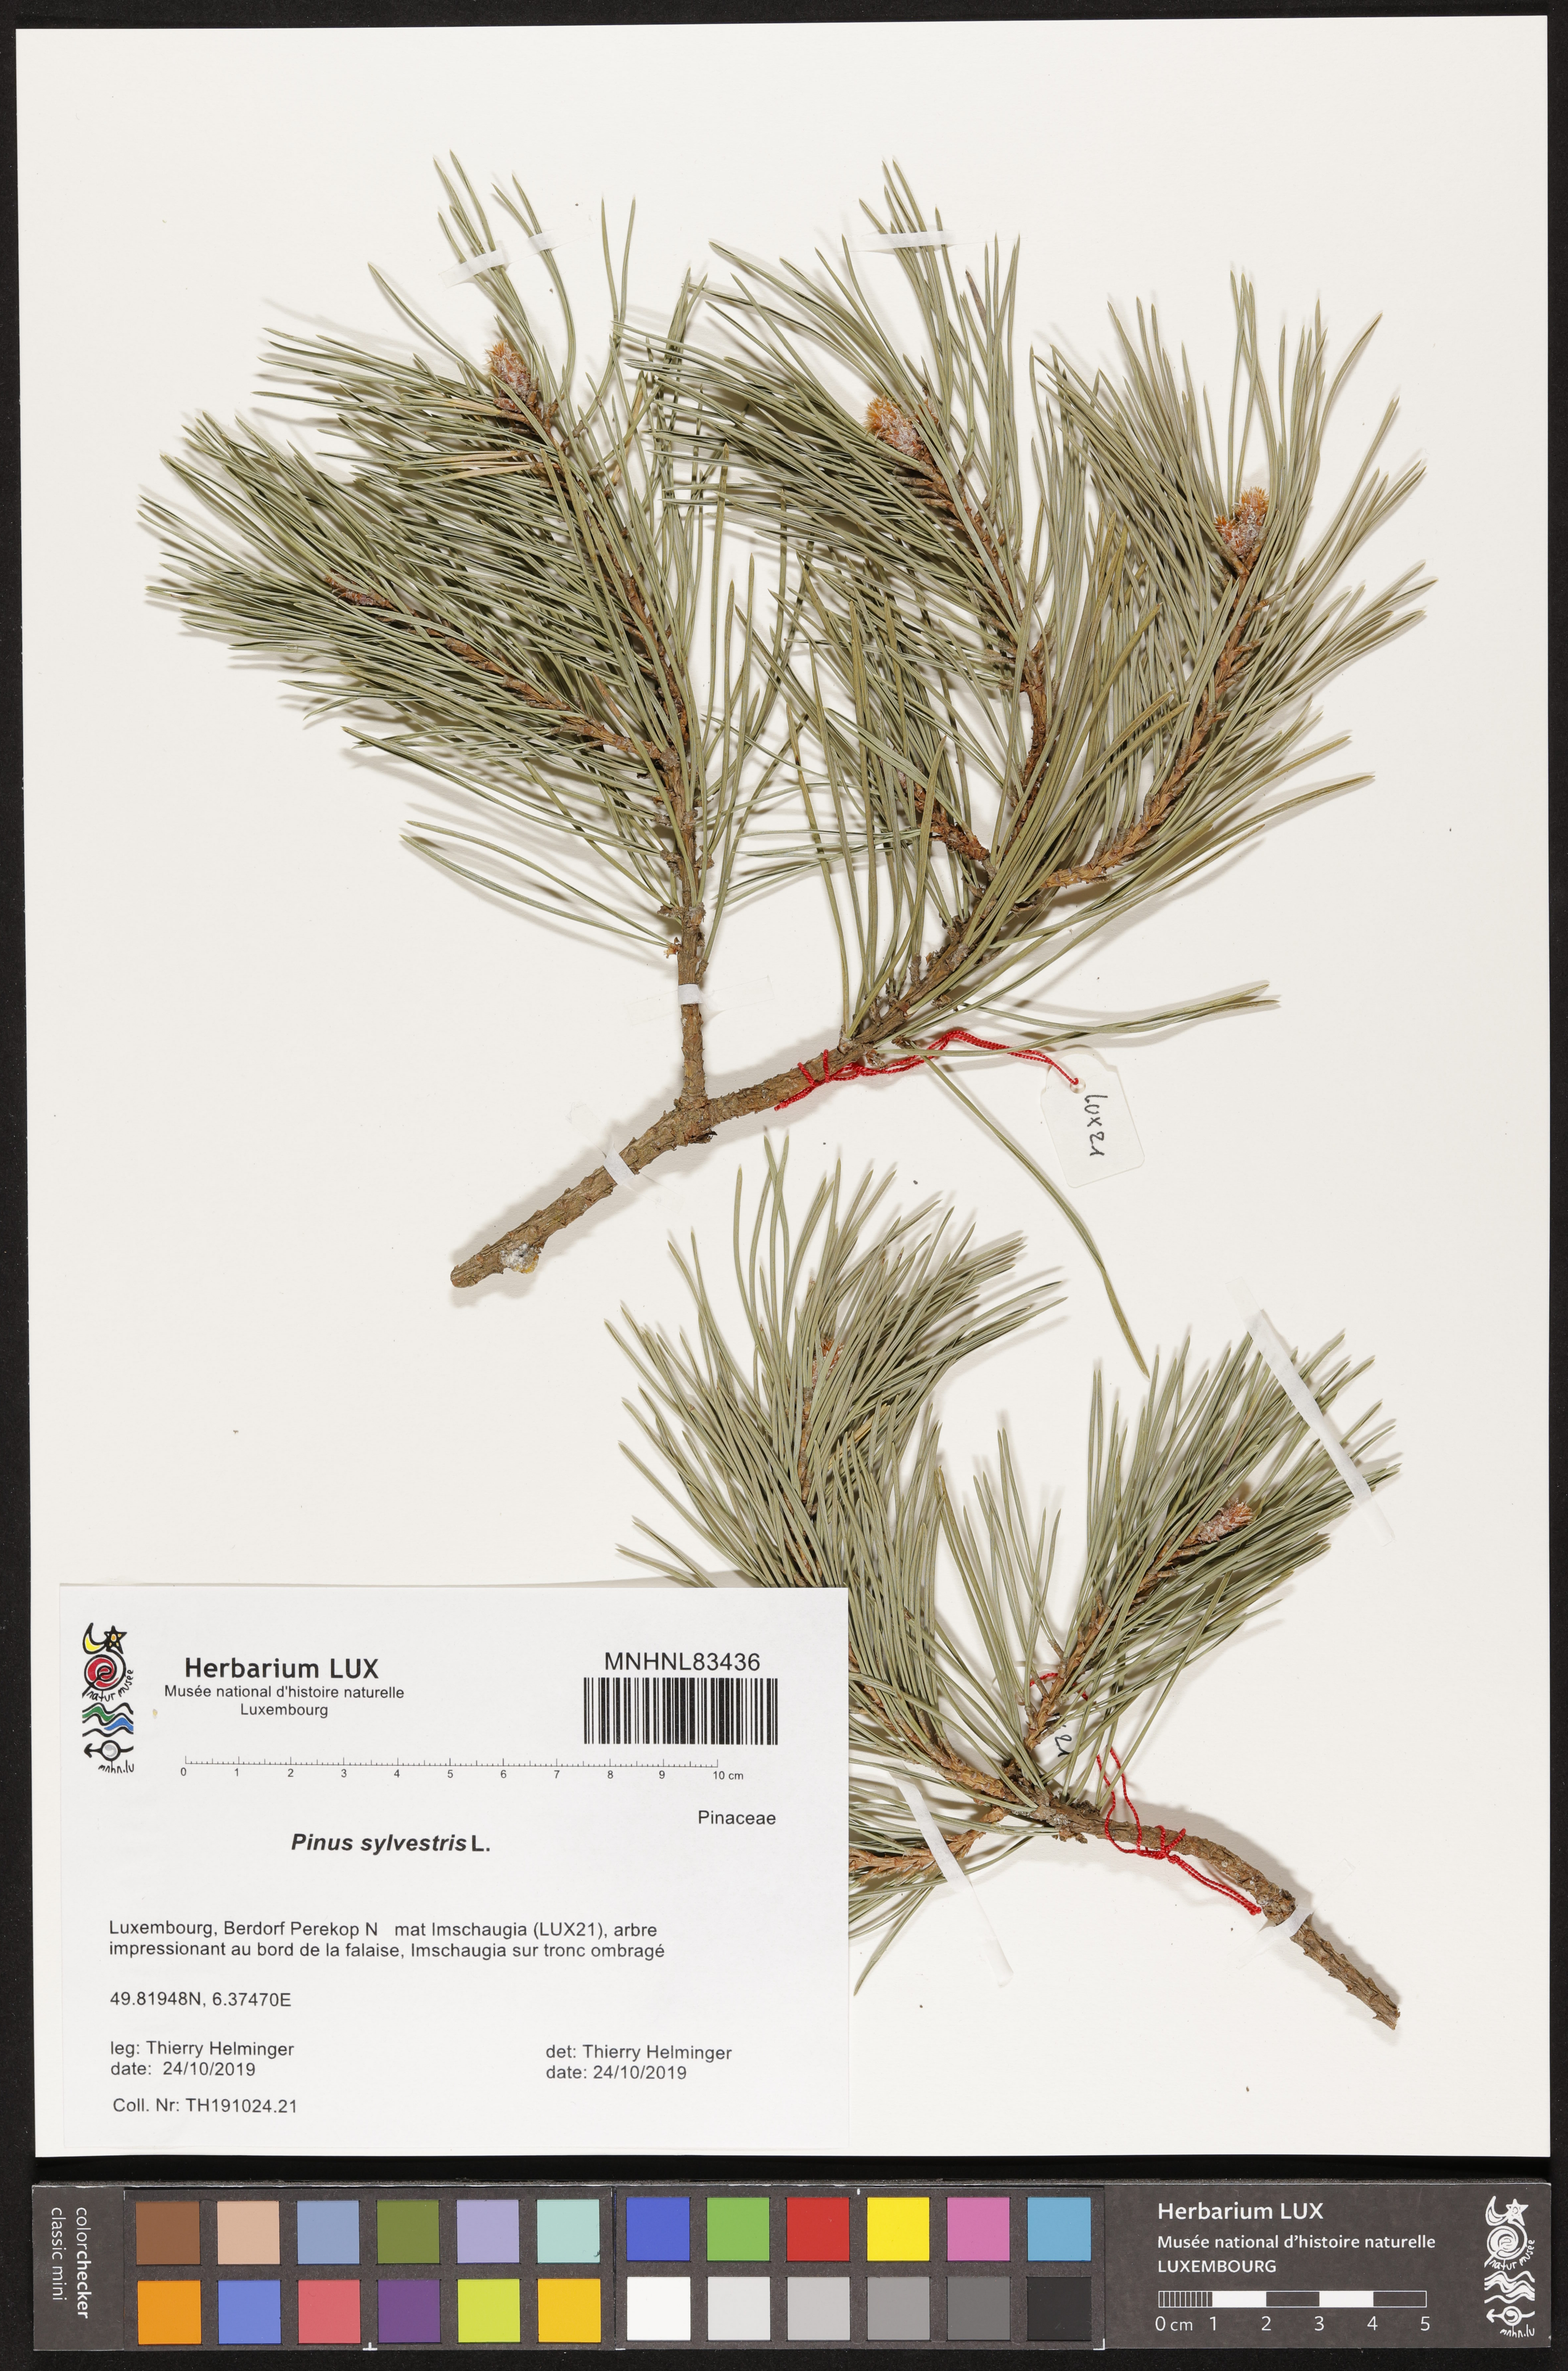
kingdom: Plantae
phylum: Tracheophyta
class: Pinopsida
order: Pinales
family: Pinaceae
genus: Pinus
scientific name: Pinus sylvestris
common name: Scots pine
